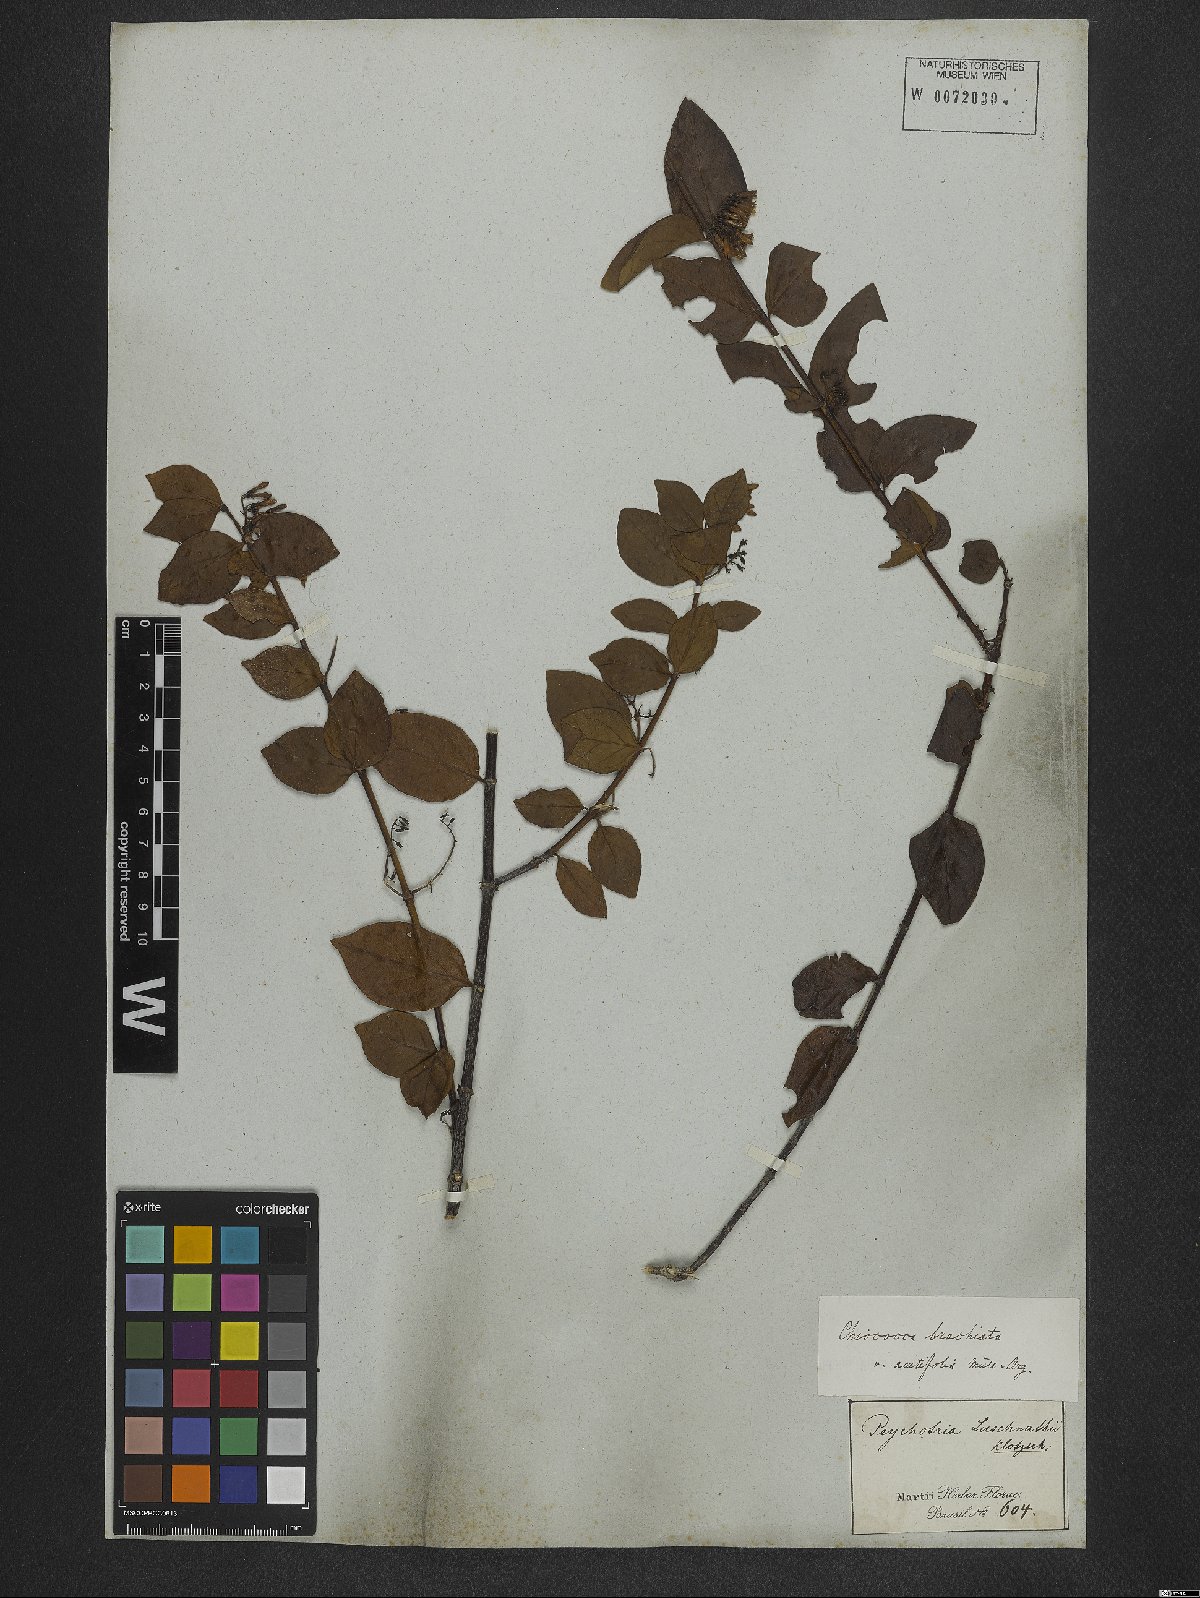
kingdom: Plantae
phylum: Tracheophyta
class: Magnoliopsida
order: Gentianales
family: Rubiaceae
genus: Chiococca
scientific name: Chiococca alba
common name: Snowberry
